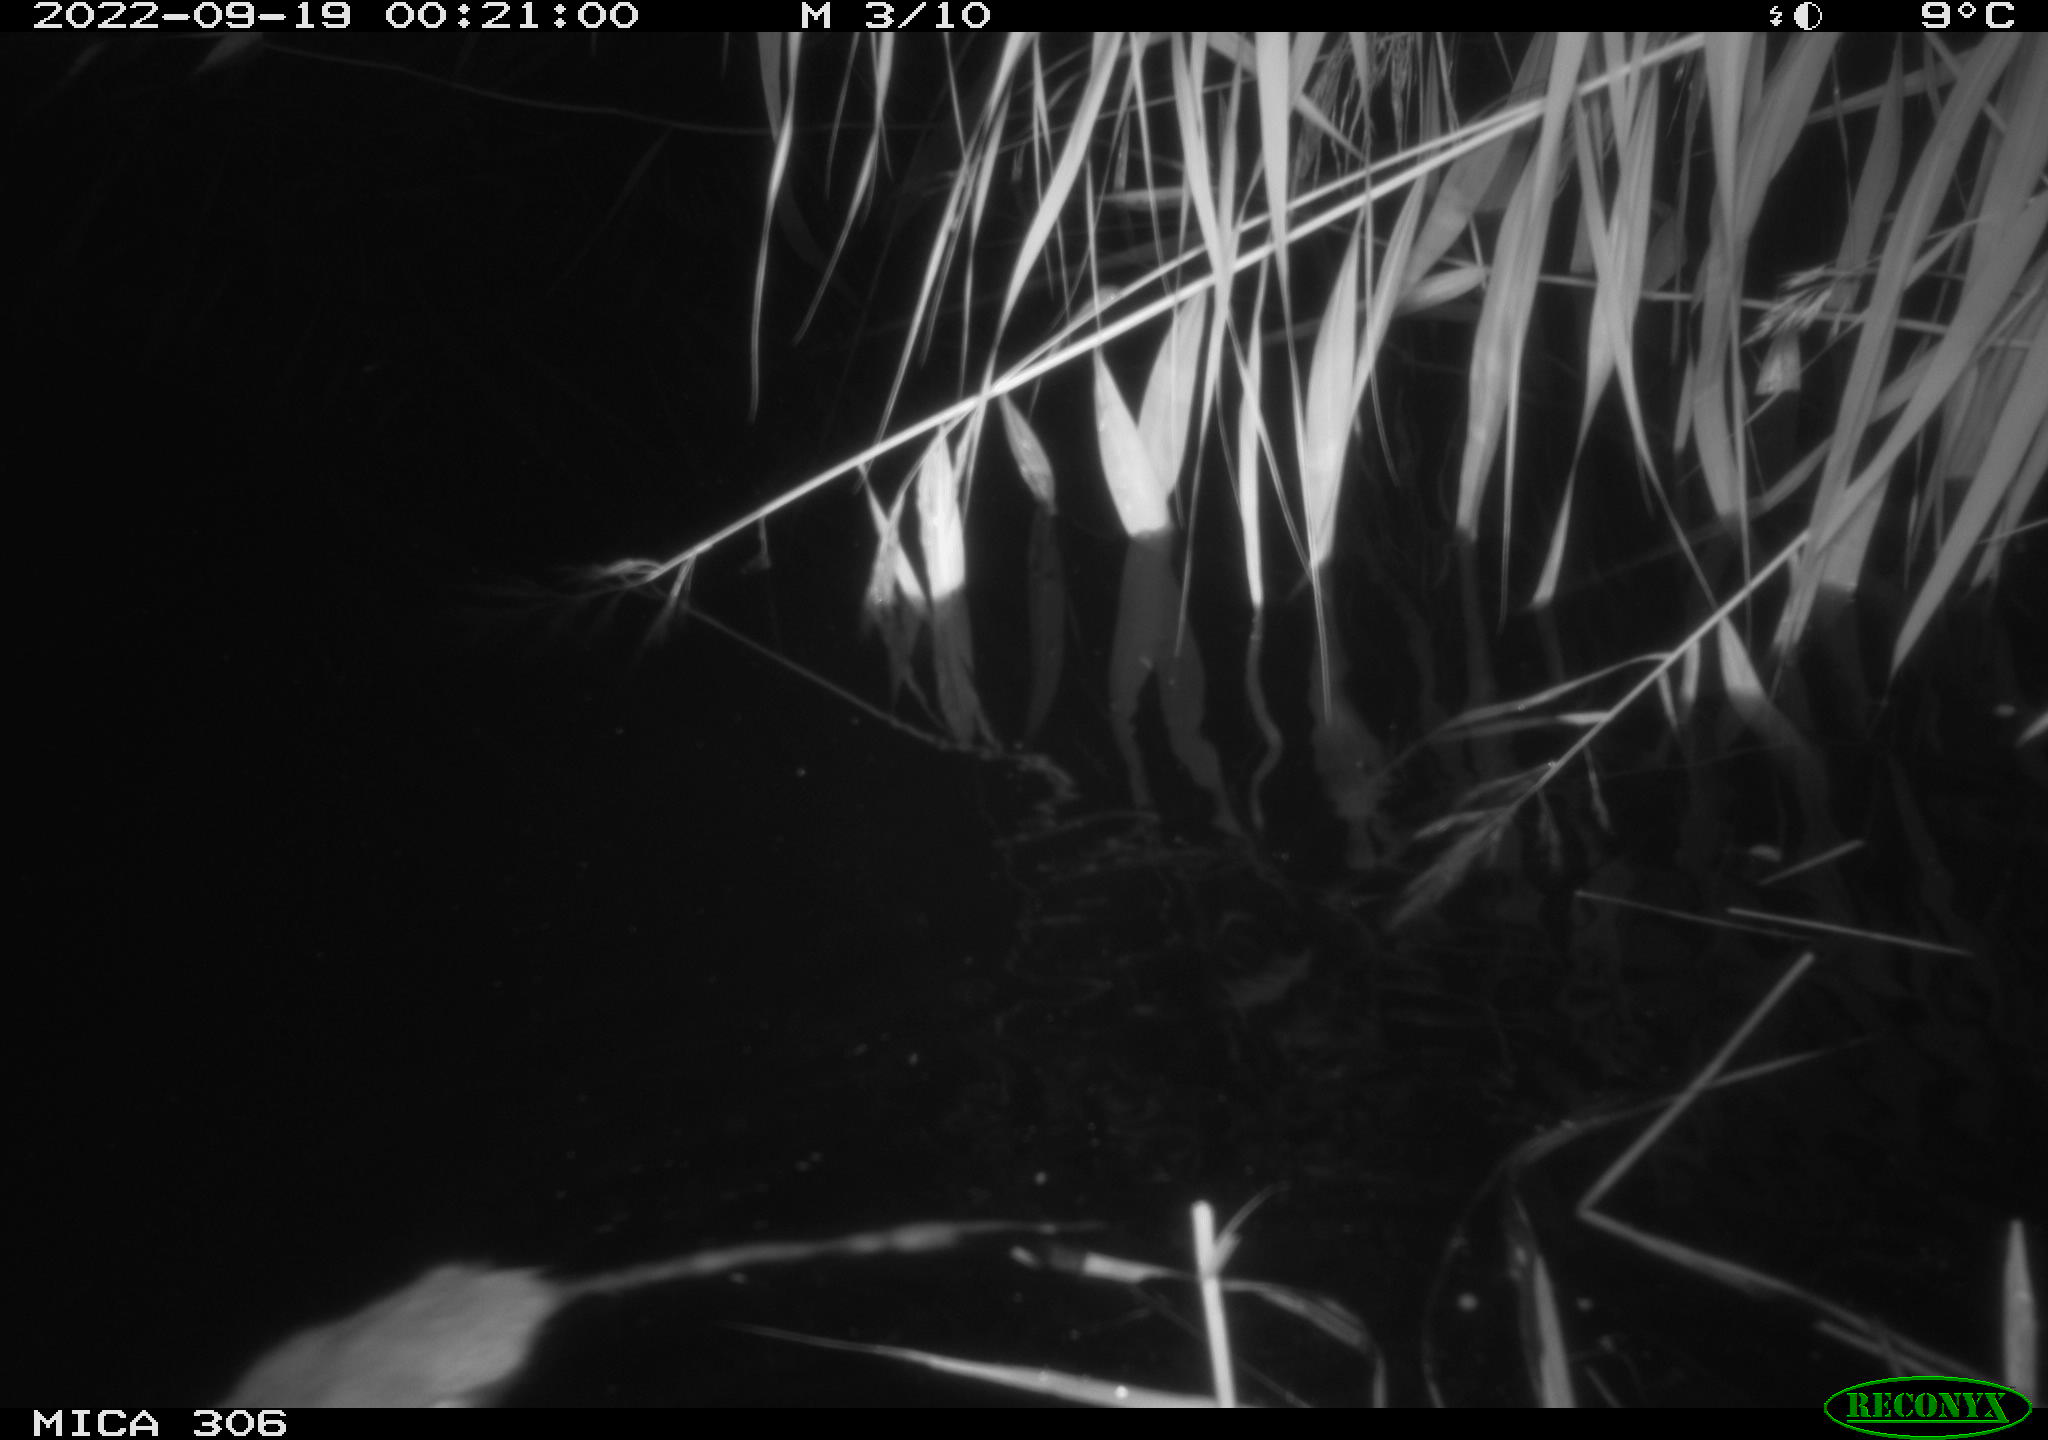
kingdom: Animalia
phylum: Chordata
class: Mammalia
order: Rodentia
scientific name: Rodentia
